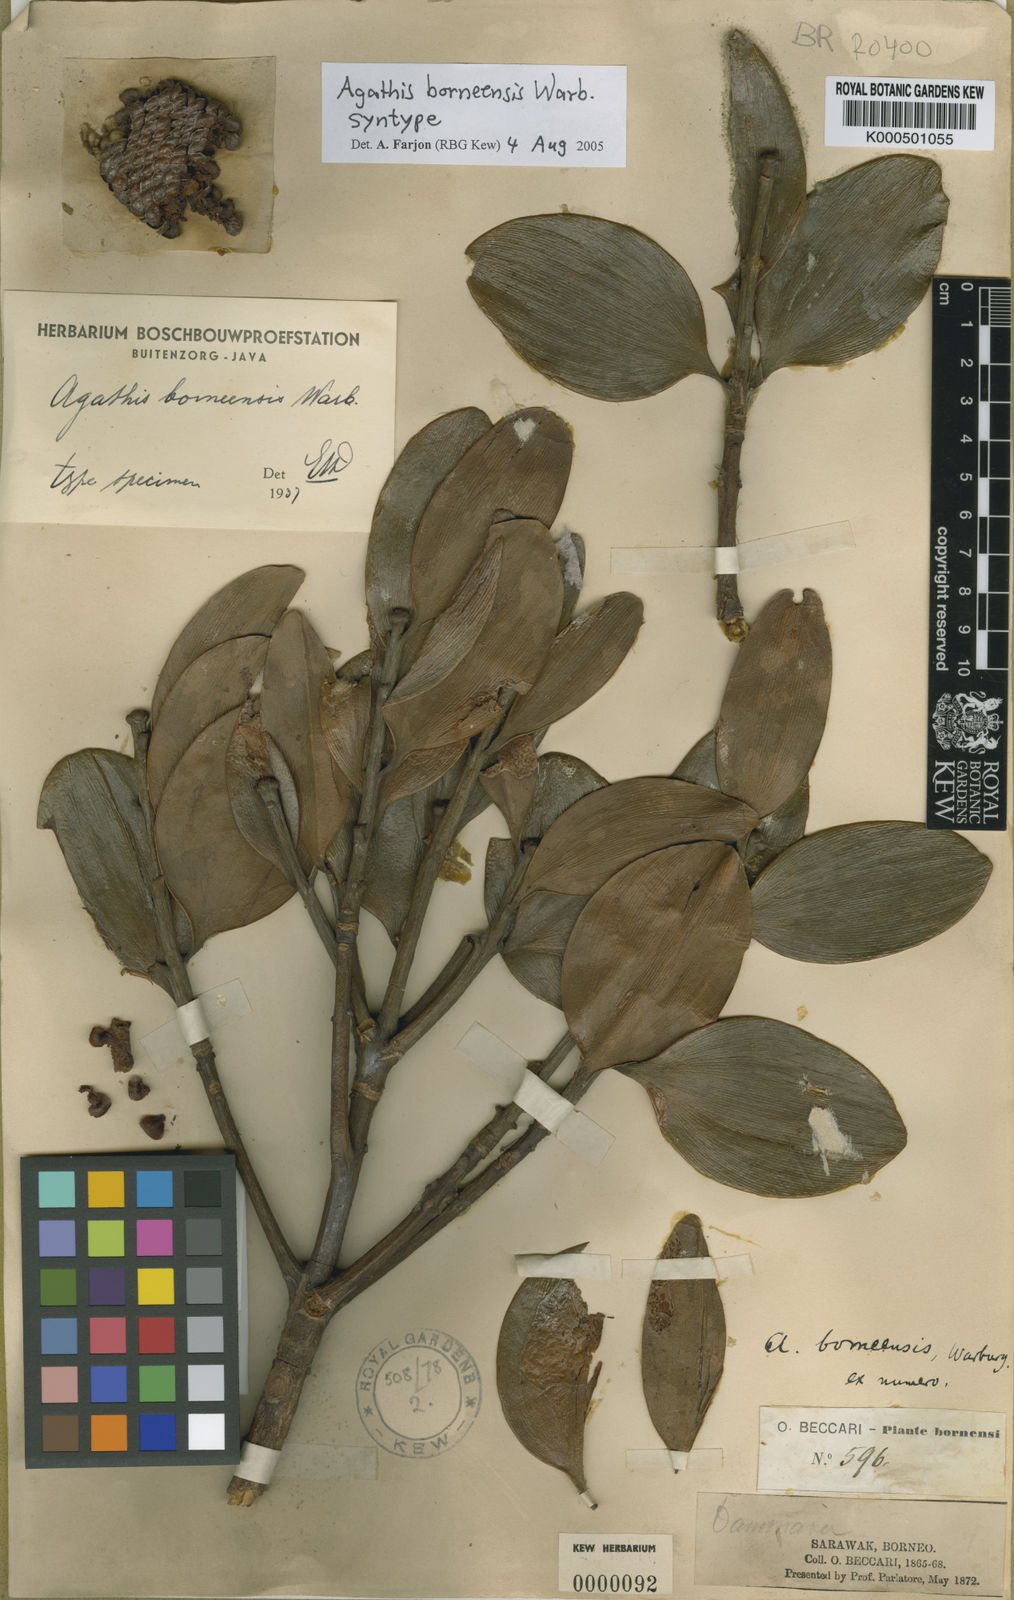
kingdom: Plantae
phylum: Tracheophyta
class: Pinopsida
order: Pinales
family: Araucariaceae
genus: Agathis
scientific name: Agathis borneensis
